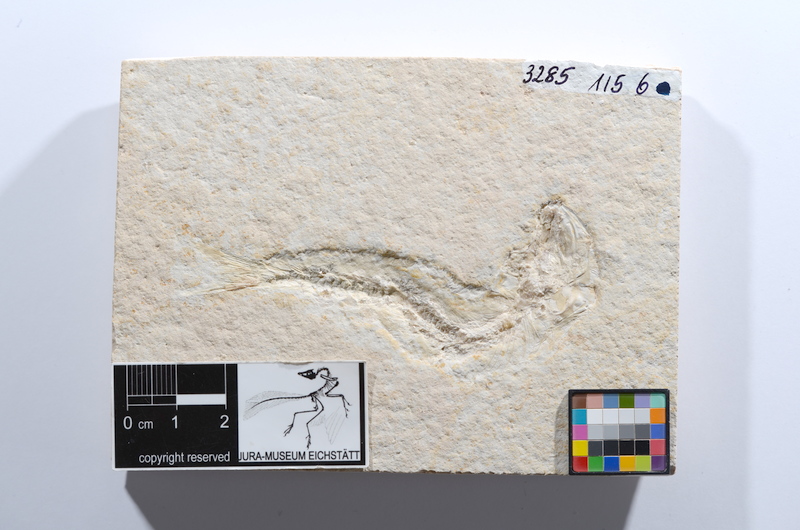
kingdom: Animalia
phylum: Chordata
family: Ascalaboidae
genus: Tharsis
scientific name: Tharsis dubius
